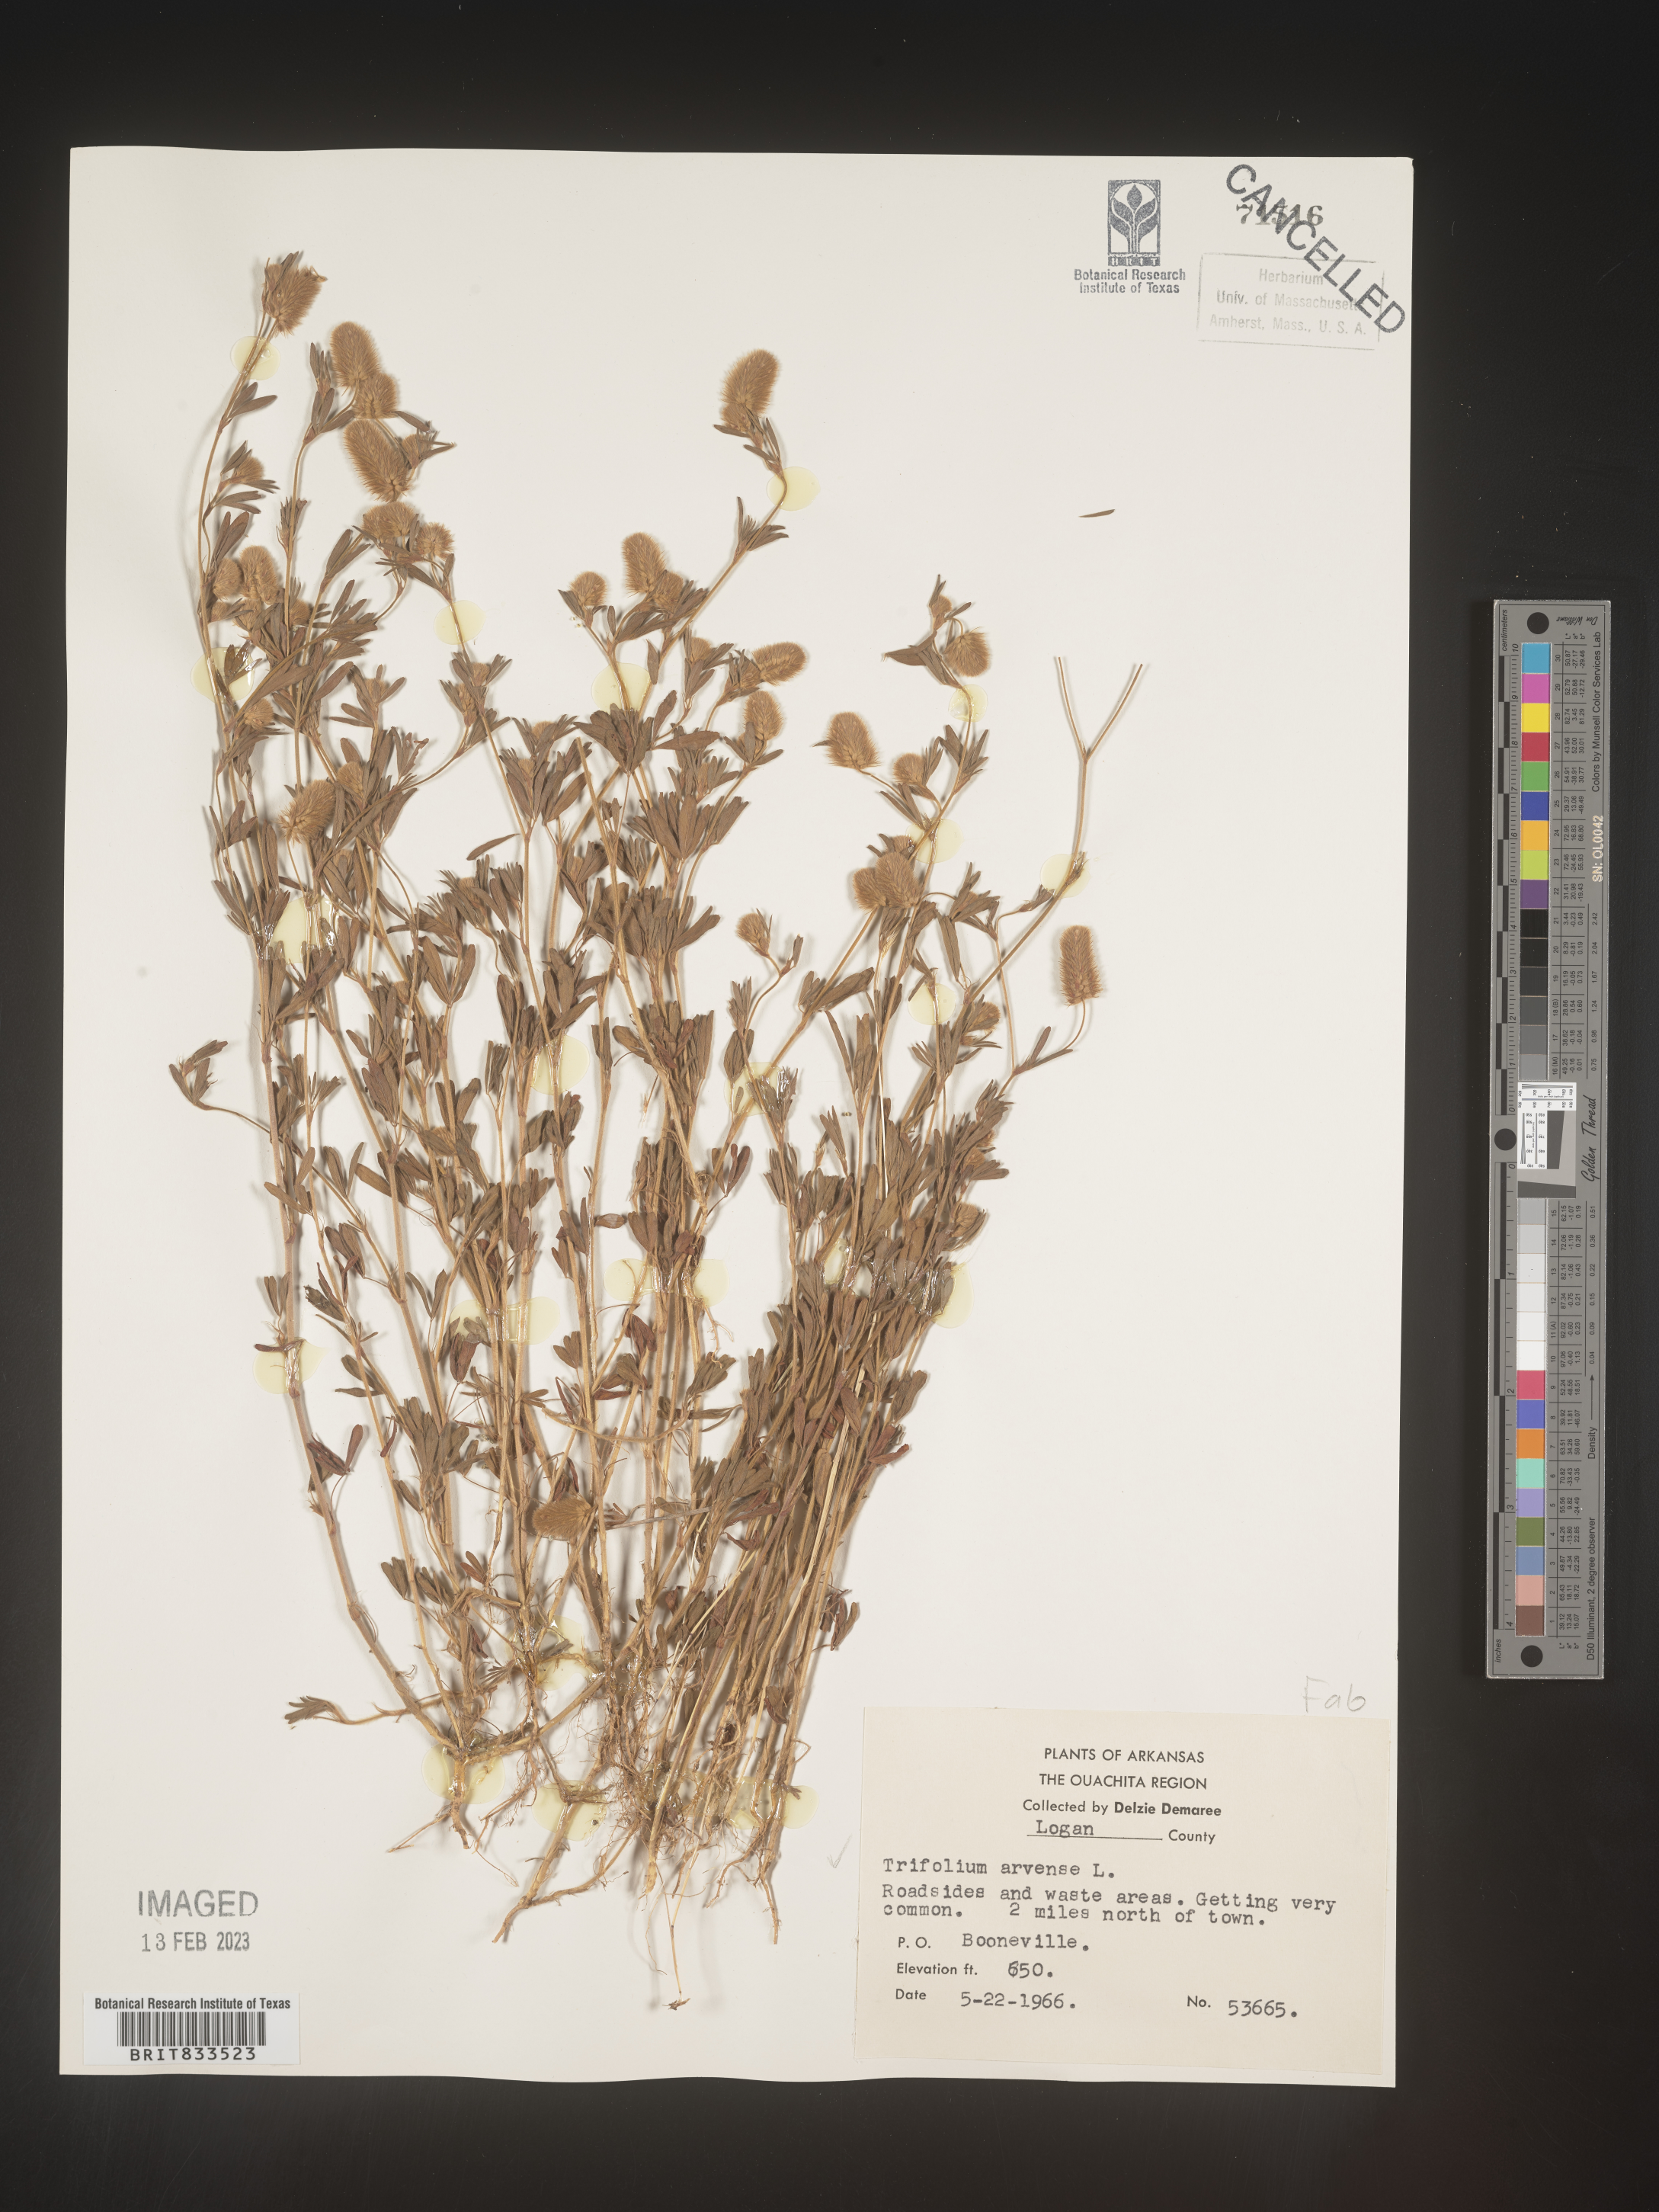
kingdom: Plantae
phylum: Tracheophyta
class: Magnoliopsida
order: Fabales
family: Fabaceae
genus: Trifolium
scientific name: Trifolium arvense
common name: Hare's-foot clover
